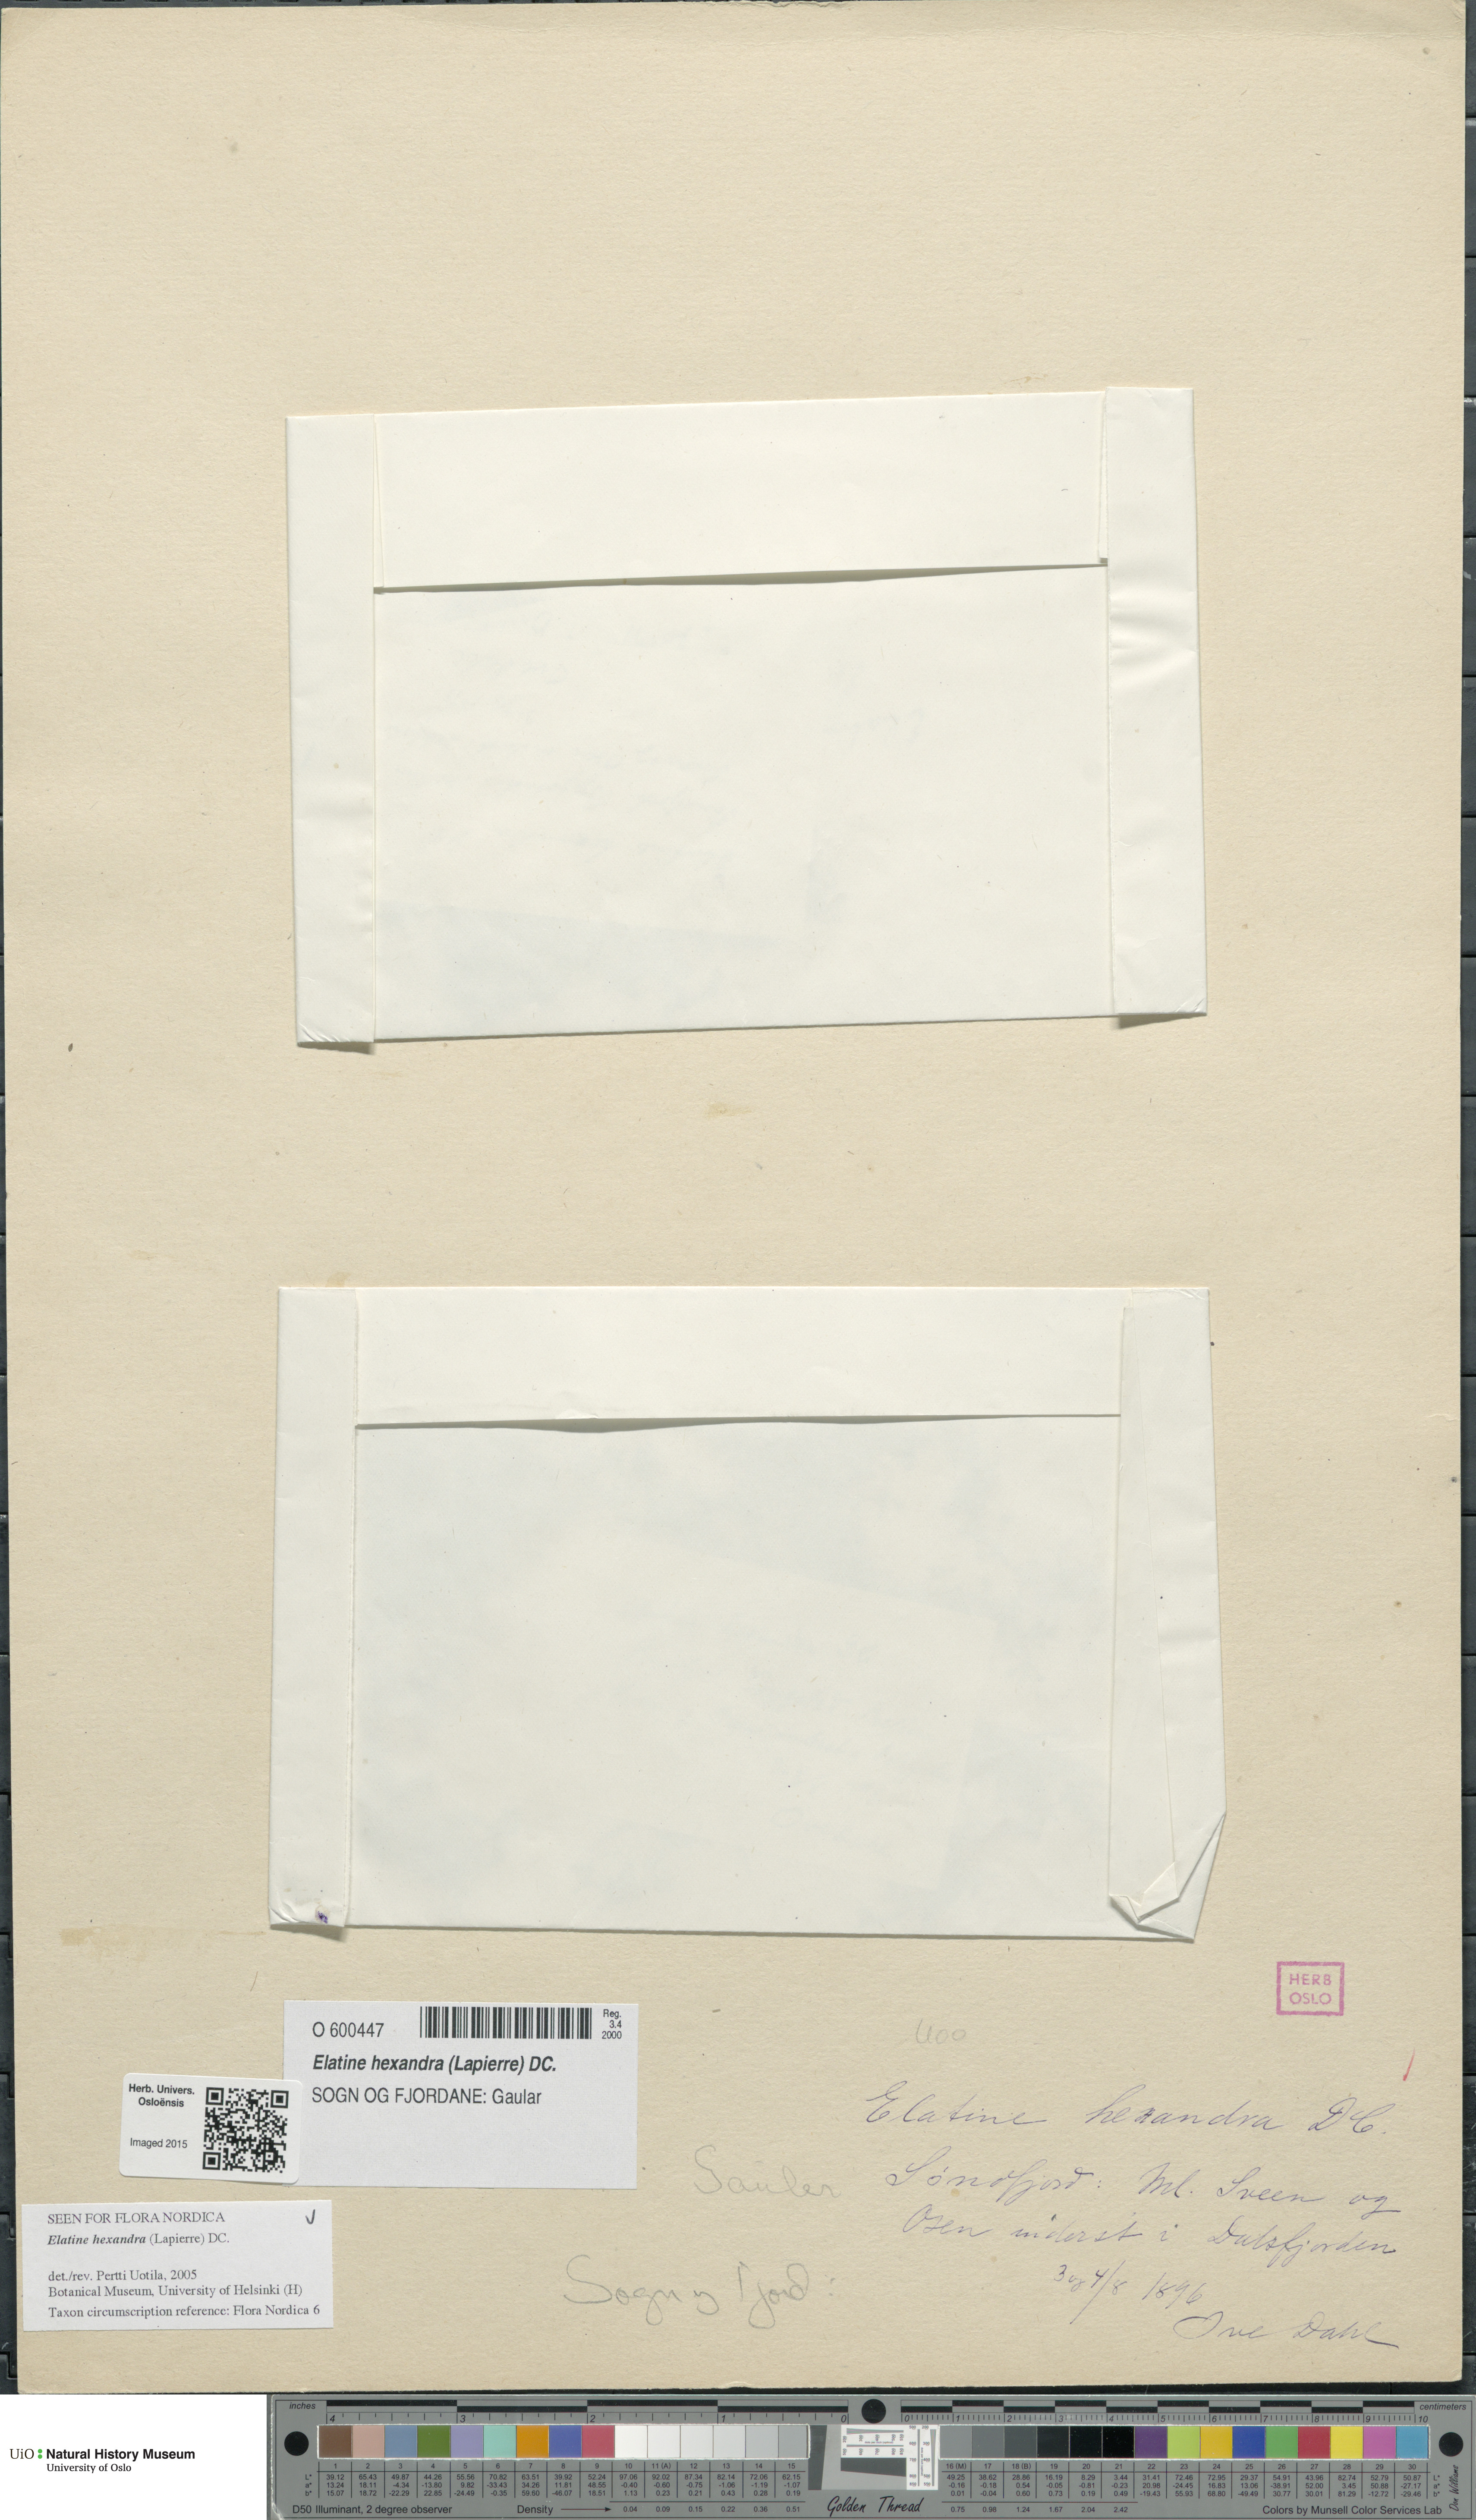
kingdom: Plantae
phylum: Tracheophyta
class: Magnoliopsida
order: Malpighiales
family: Elatinaceae
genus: Elatine
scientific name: Elatine hexandra
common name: Six-stamened waterwort
